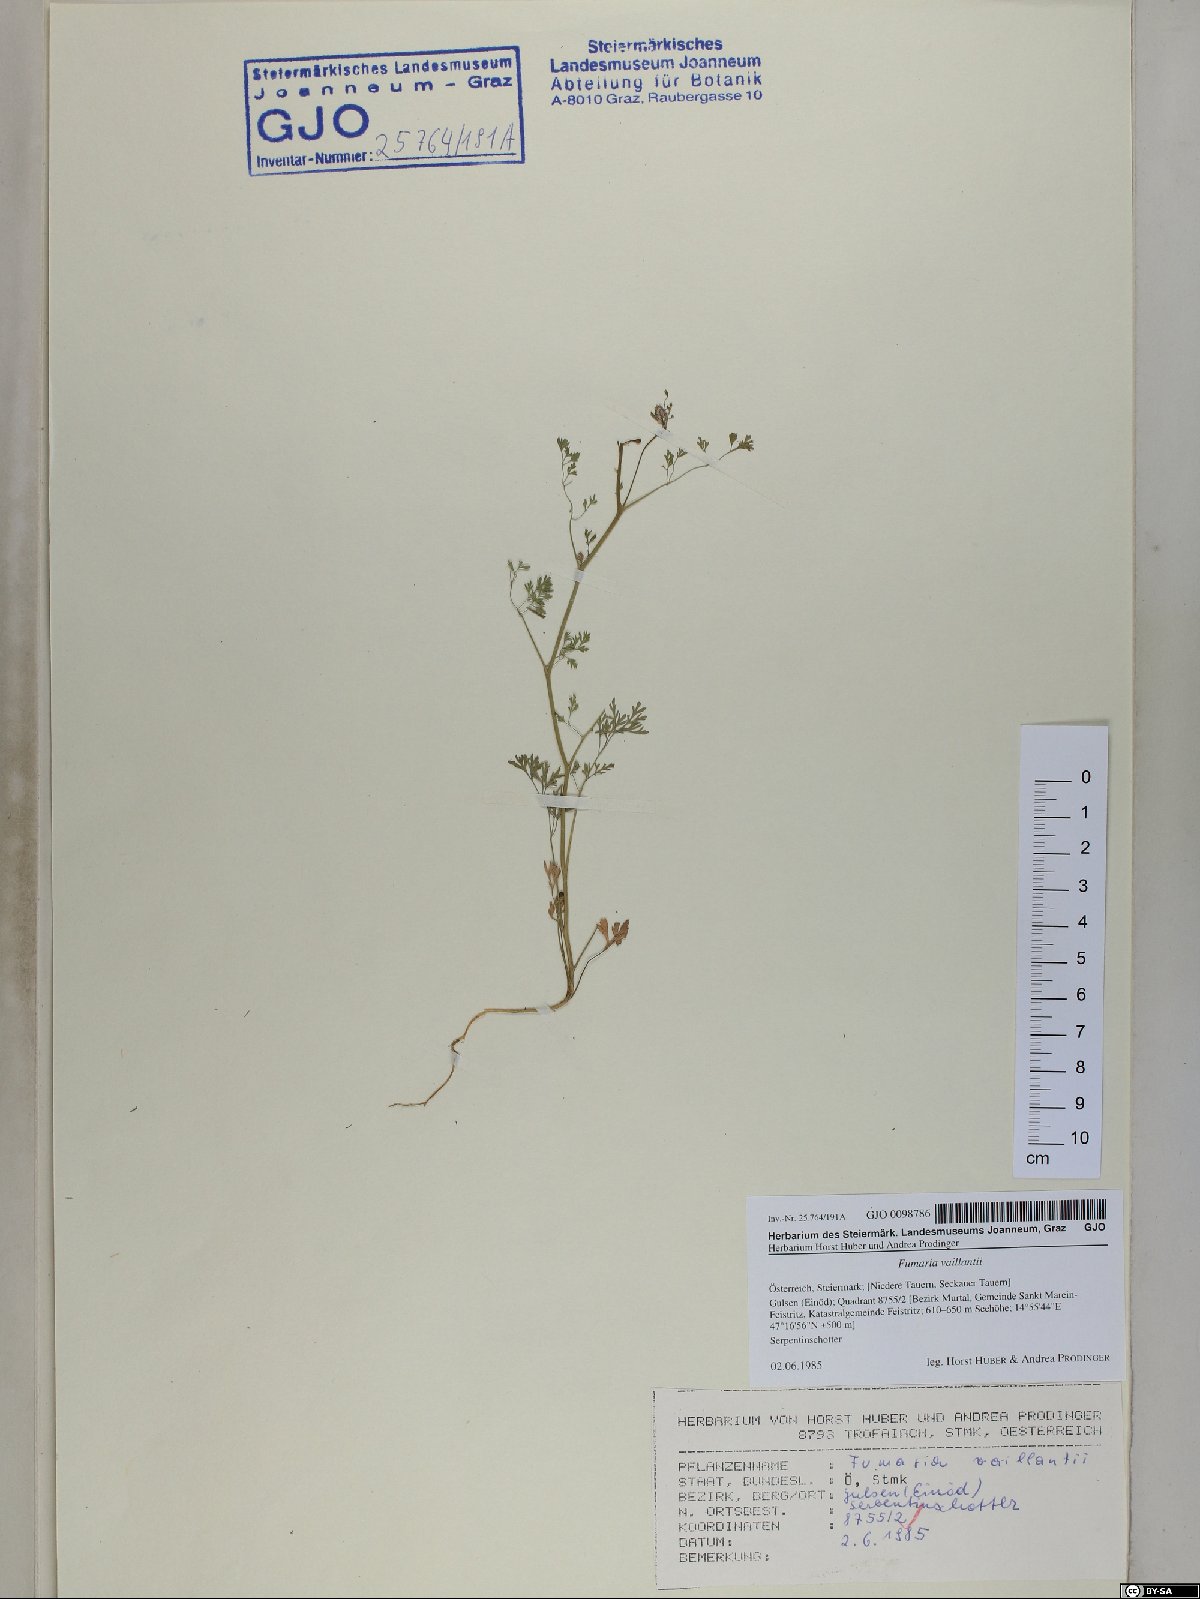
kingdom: Plantae
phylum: Tracheophyta
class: Magnoliopsida
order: Ranunculales
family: Papaveraceae
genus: Fumaria
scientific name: Fumaria vaillantii
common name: Few-flowered fumitory
